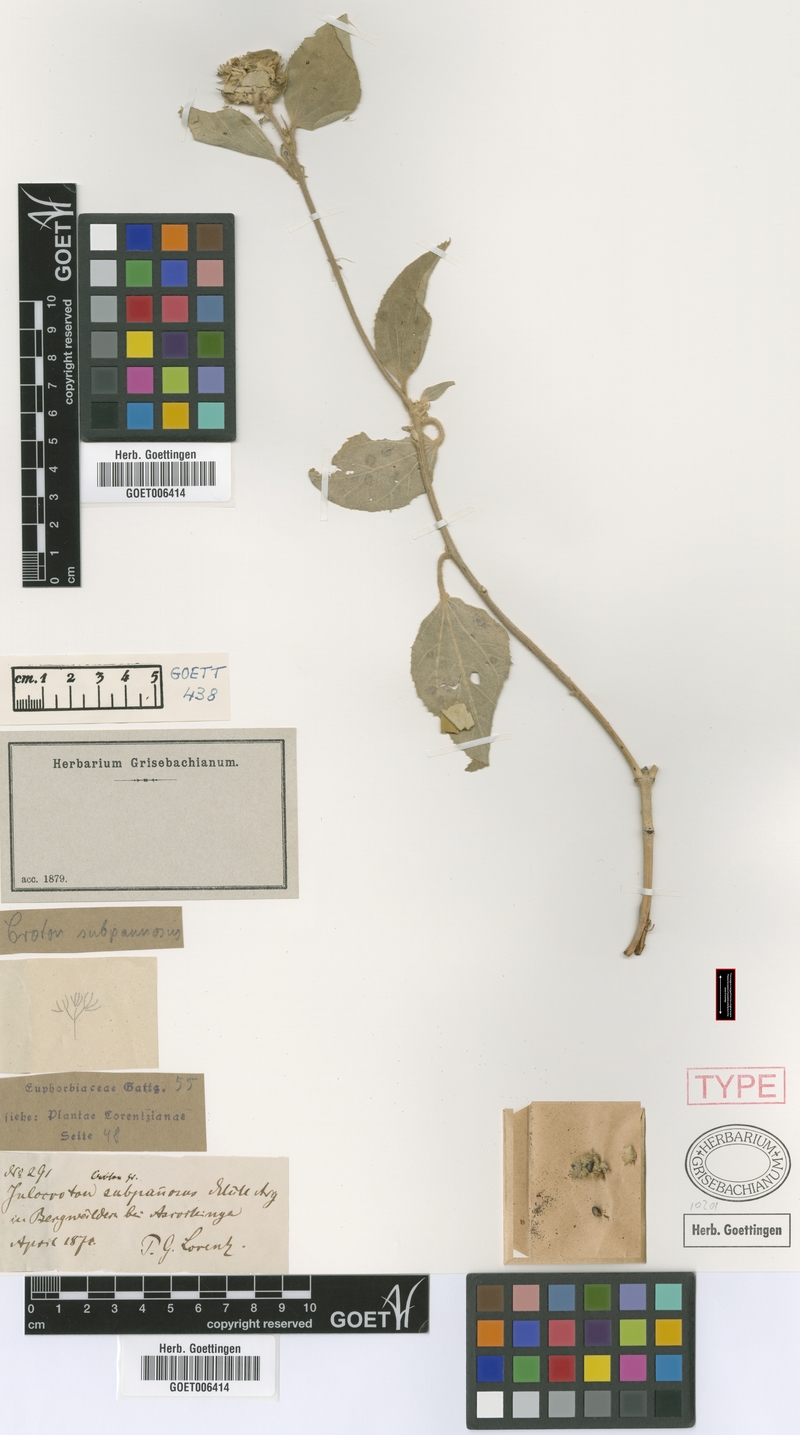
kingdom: Plantae
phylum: Tracheophyta
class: Magnoliopsida
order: Malpighiales
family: Euphorbiaceae
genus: Croton
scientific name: Croton subpannosus
